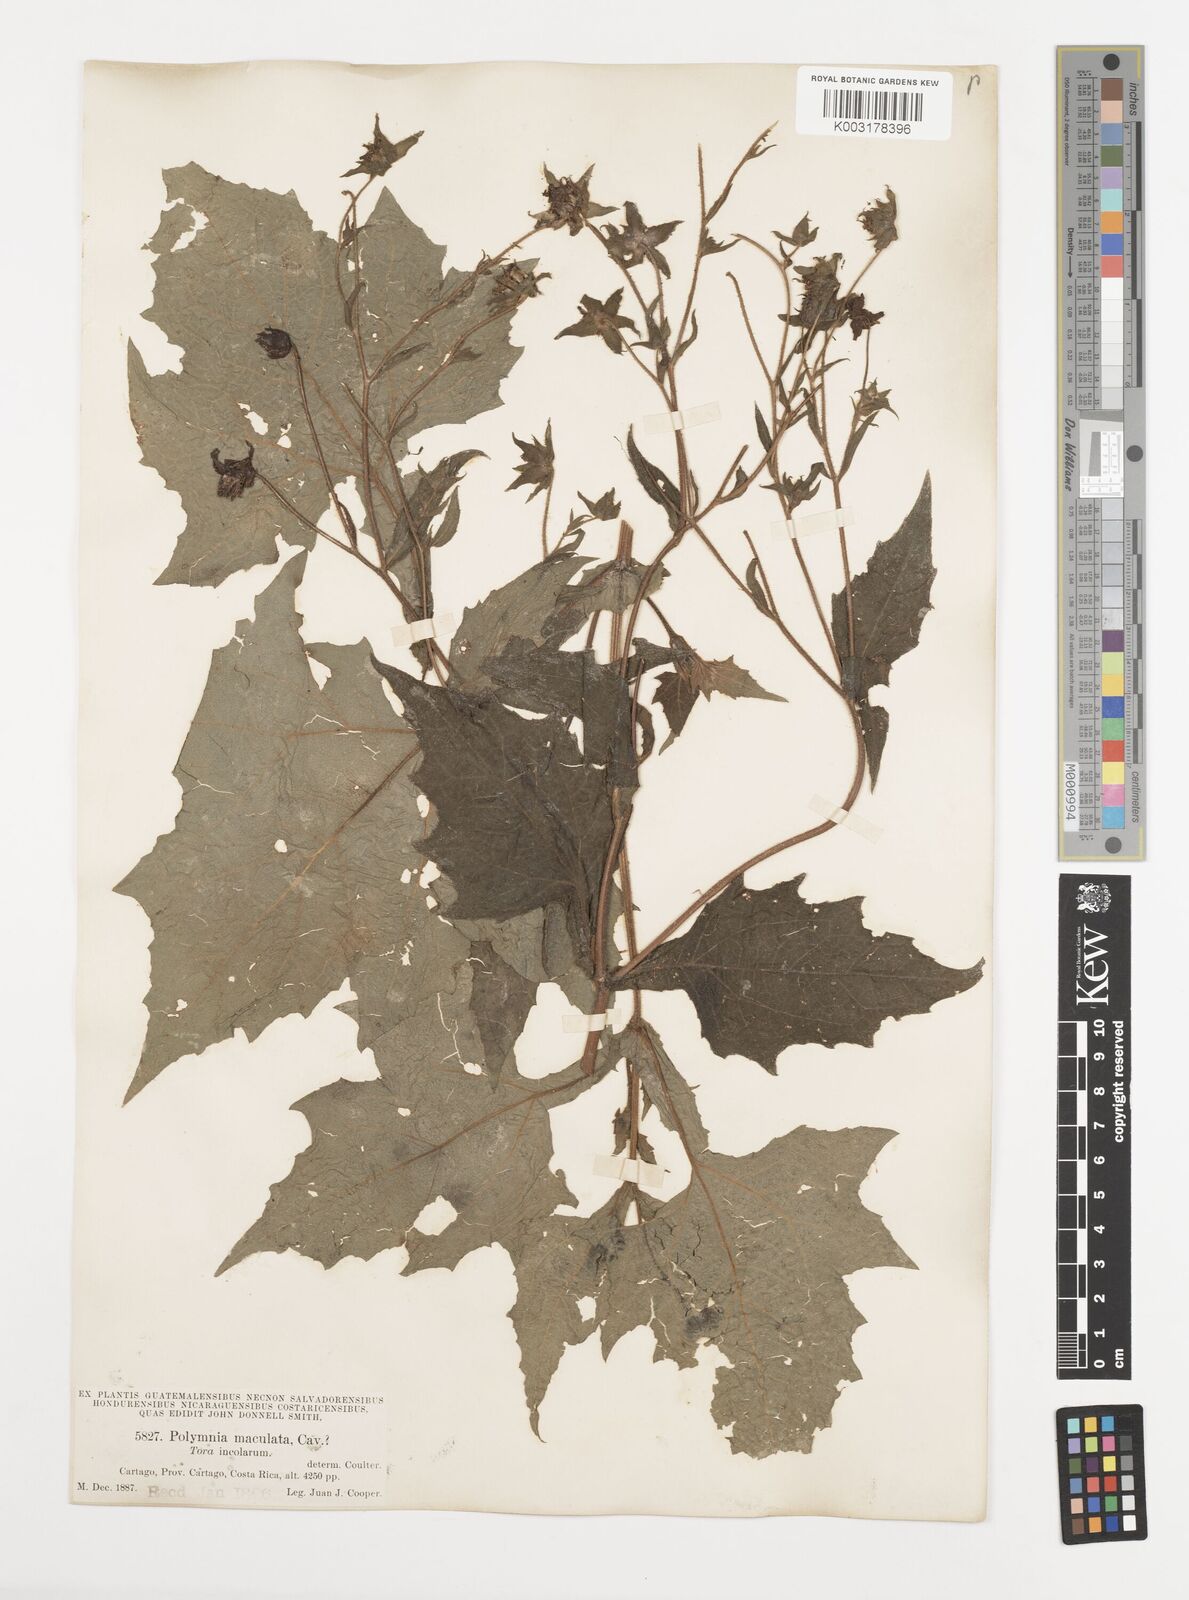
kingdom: Plantae
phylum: Tracheophyta
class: Magnoliopsida
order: Asterales
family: Asteraceae
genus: Smallanthus
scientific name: Smallanthus maculatus
